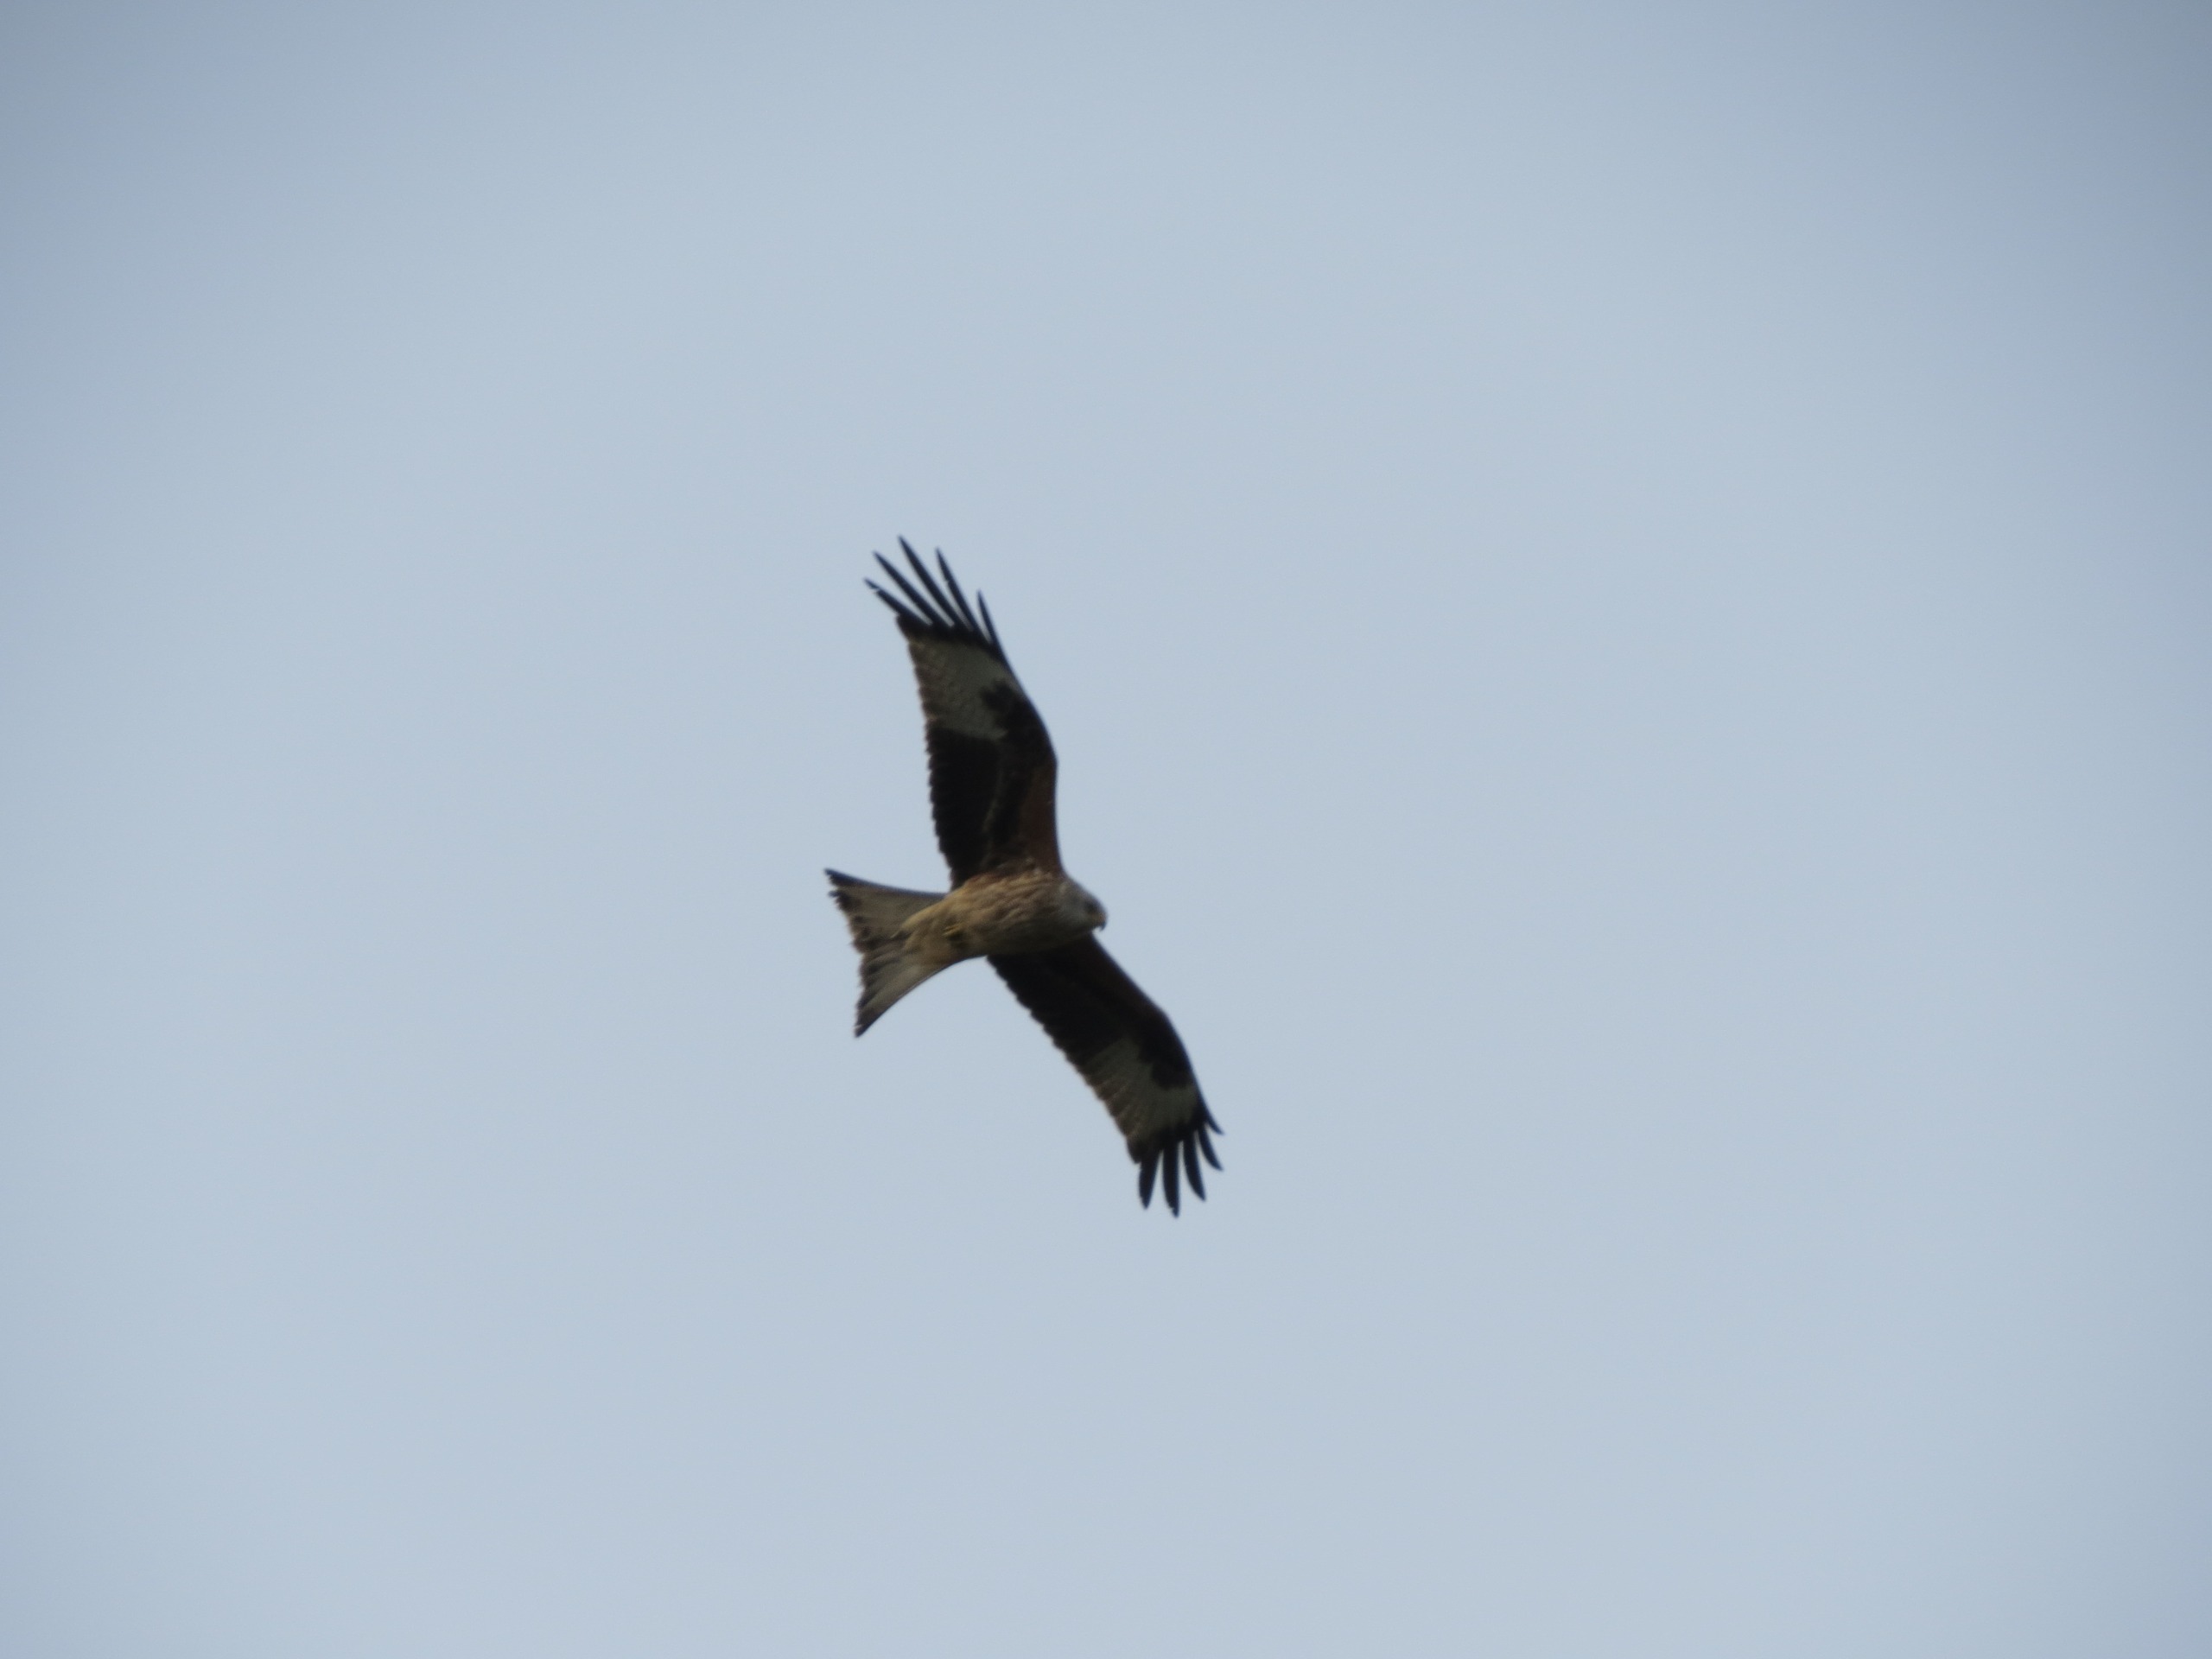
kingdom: Animalia
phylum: Chordata
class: Aves
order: Accipitriformes
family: Accipitridae
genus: Milvus
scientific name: Milvus milvus
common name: Rød glente
